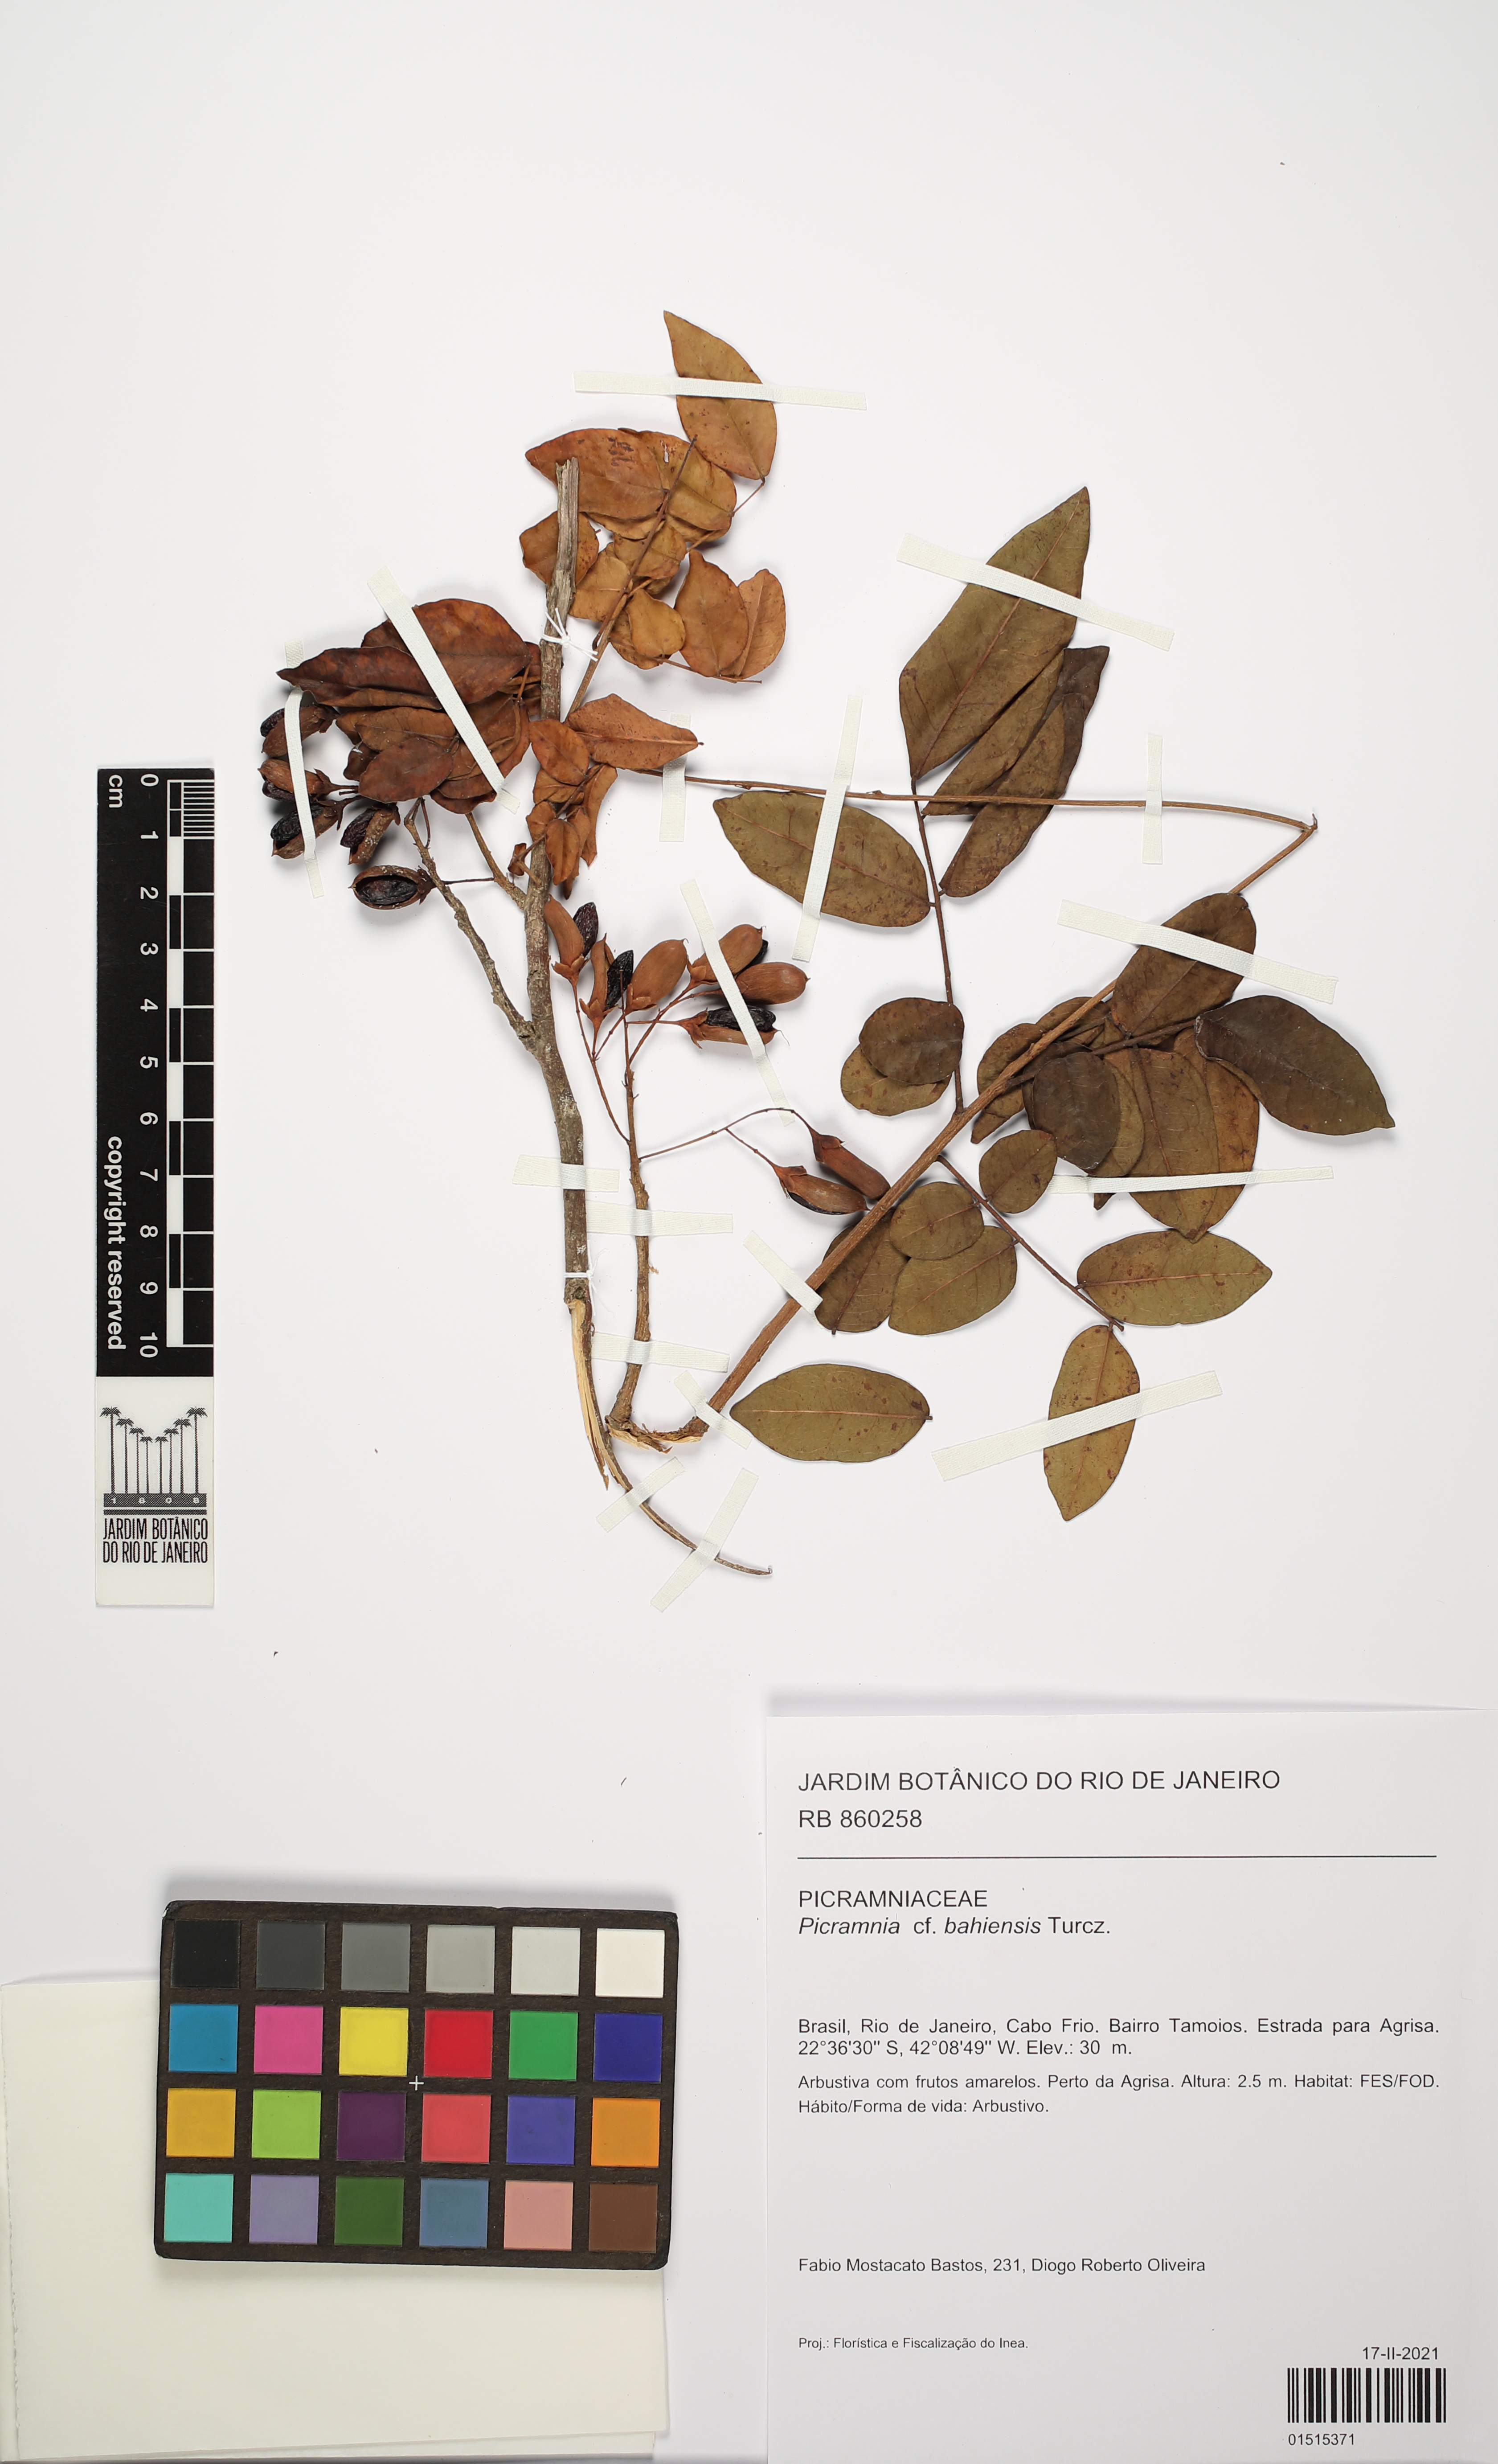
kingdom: Plantae
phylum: Tracheophyta
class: Magnoliopsida
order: Picramniales
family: Picramniaceae
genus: Picramnia
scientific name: Picramnia bahiensis
